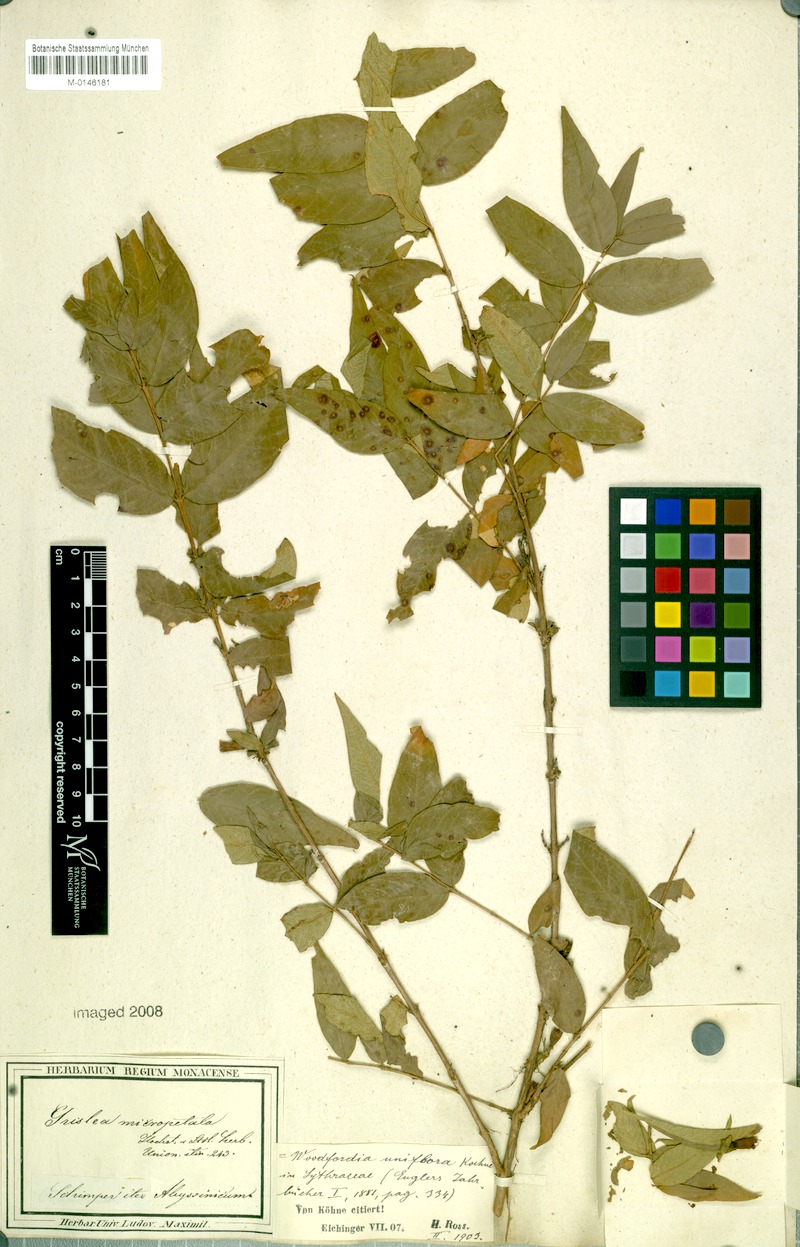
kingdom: Plantae
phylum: Tracheophyta
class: Magnoliopsida
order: Myrtales
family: Lythraceae
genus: Woodfordia
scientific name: Woodfordia uniflora
